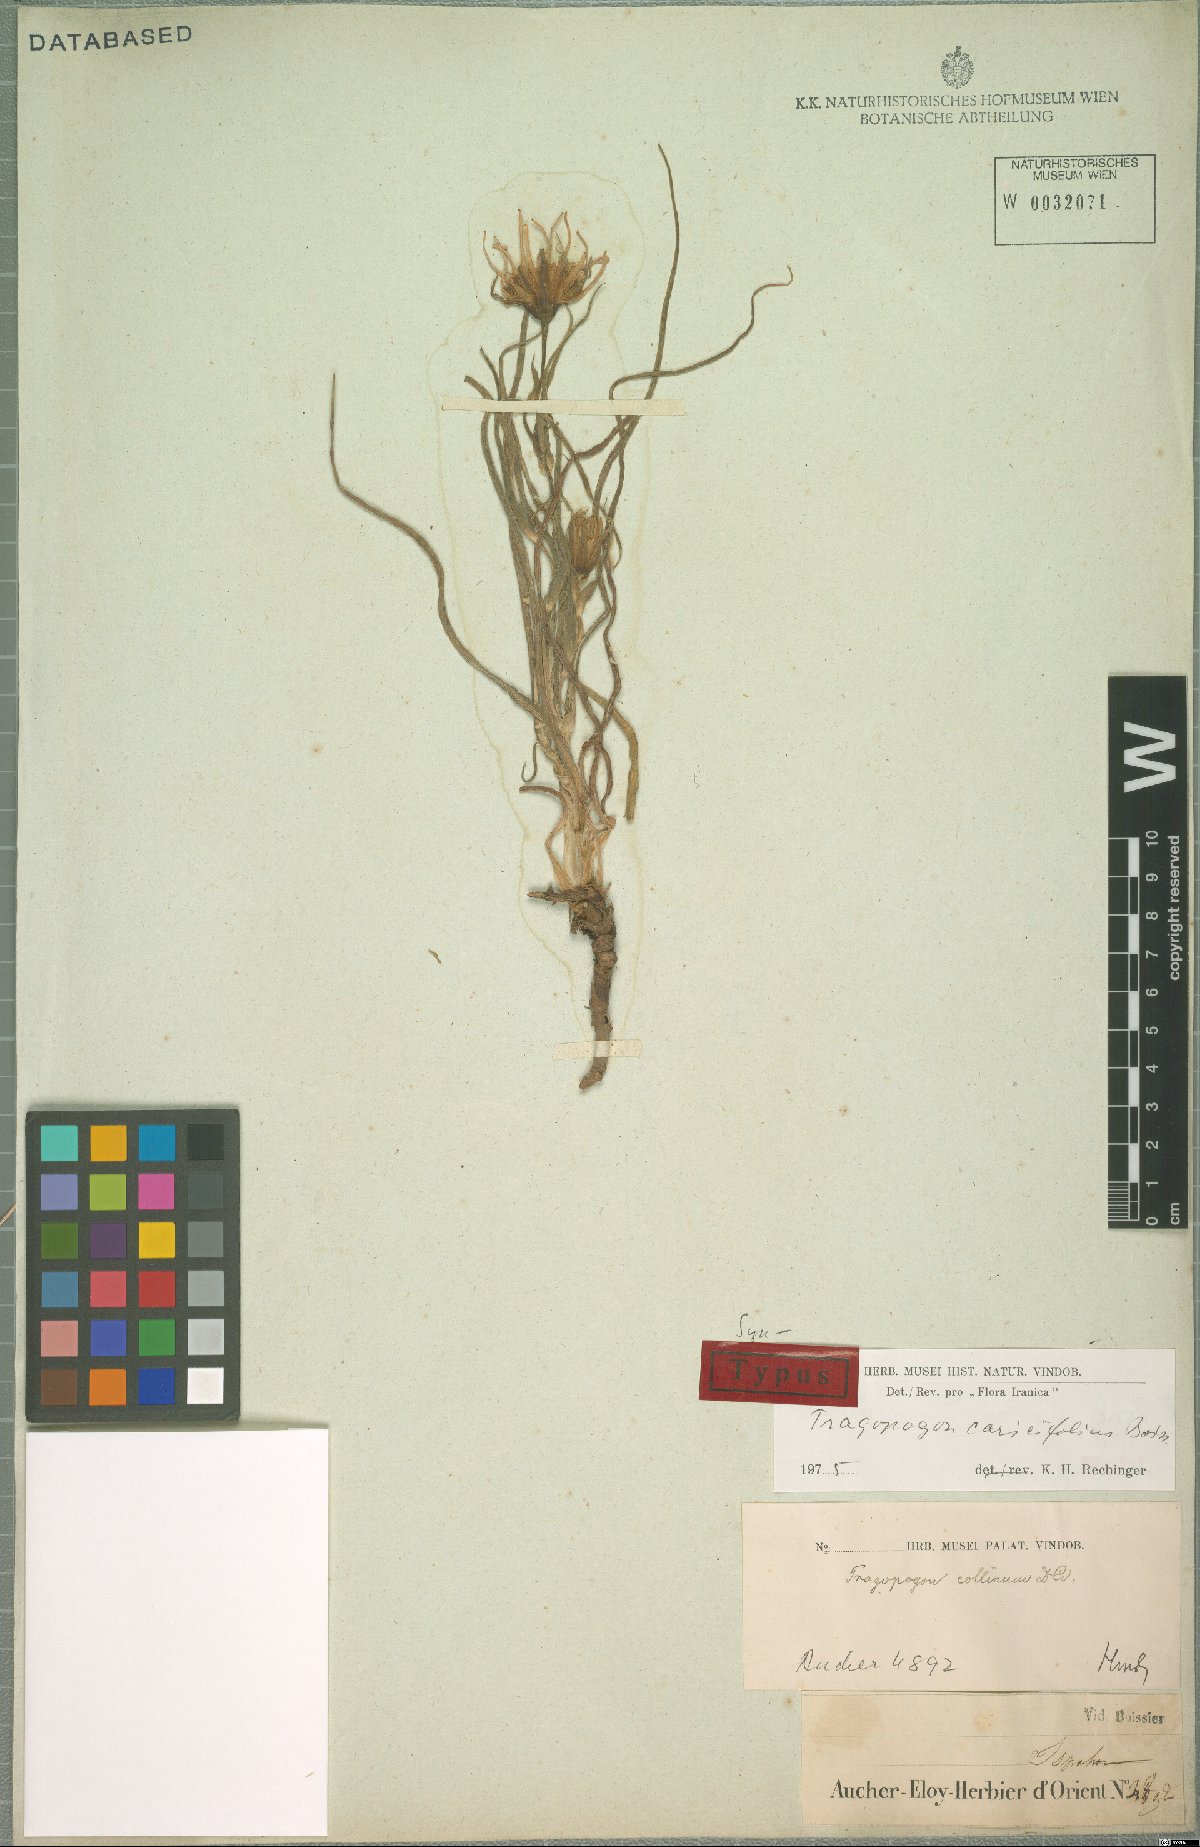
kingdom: Plantae
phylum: Tracheophyta
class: Magnoliopsida
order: Asterales
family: Asteraceae
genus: Tragopogon
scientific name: Tragopogon caricifolius
